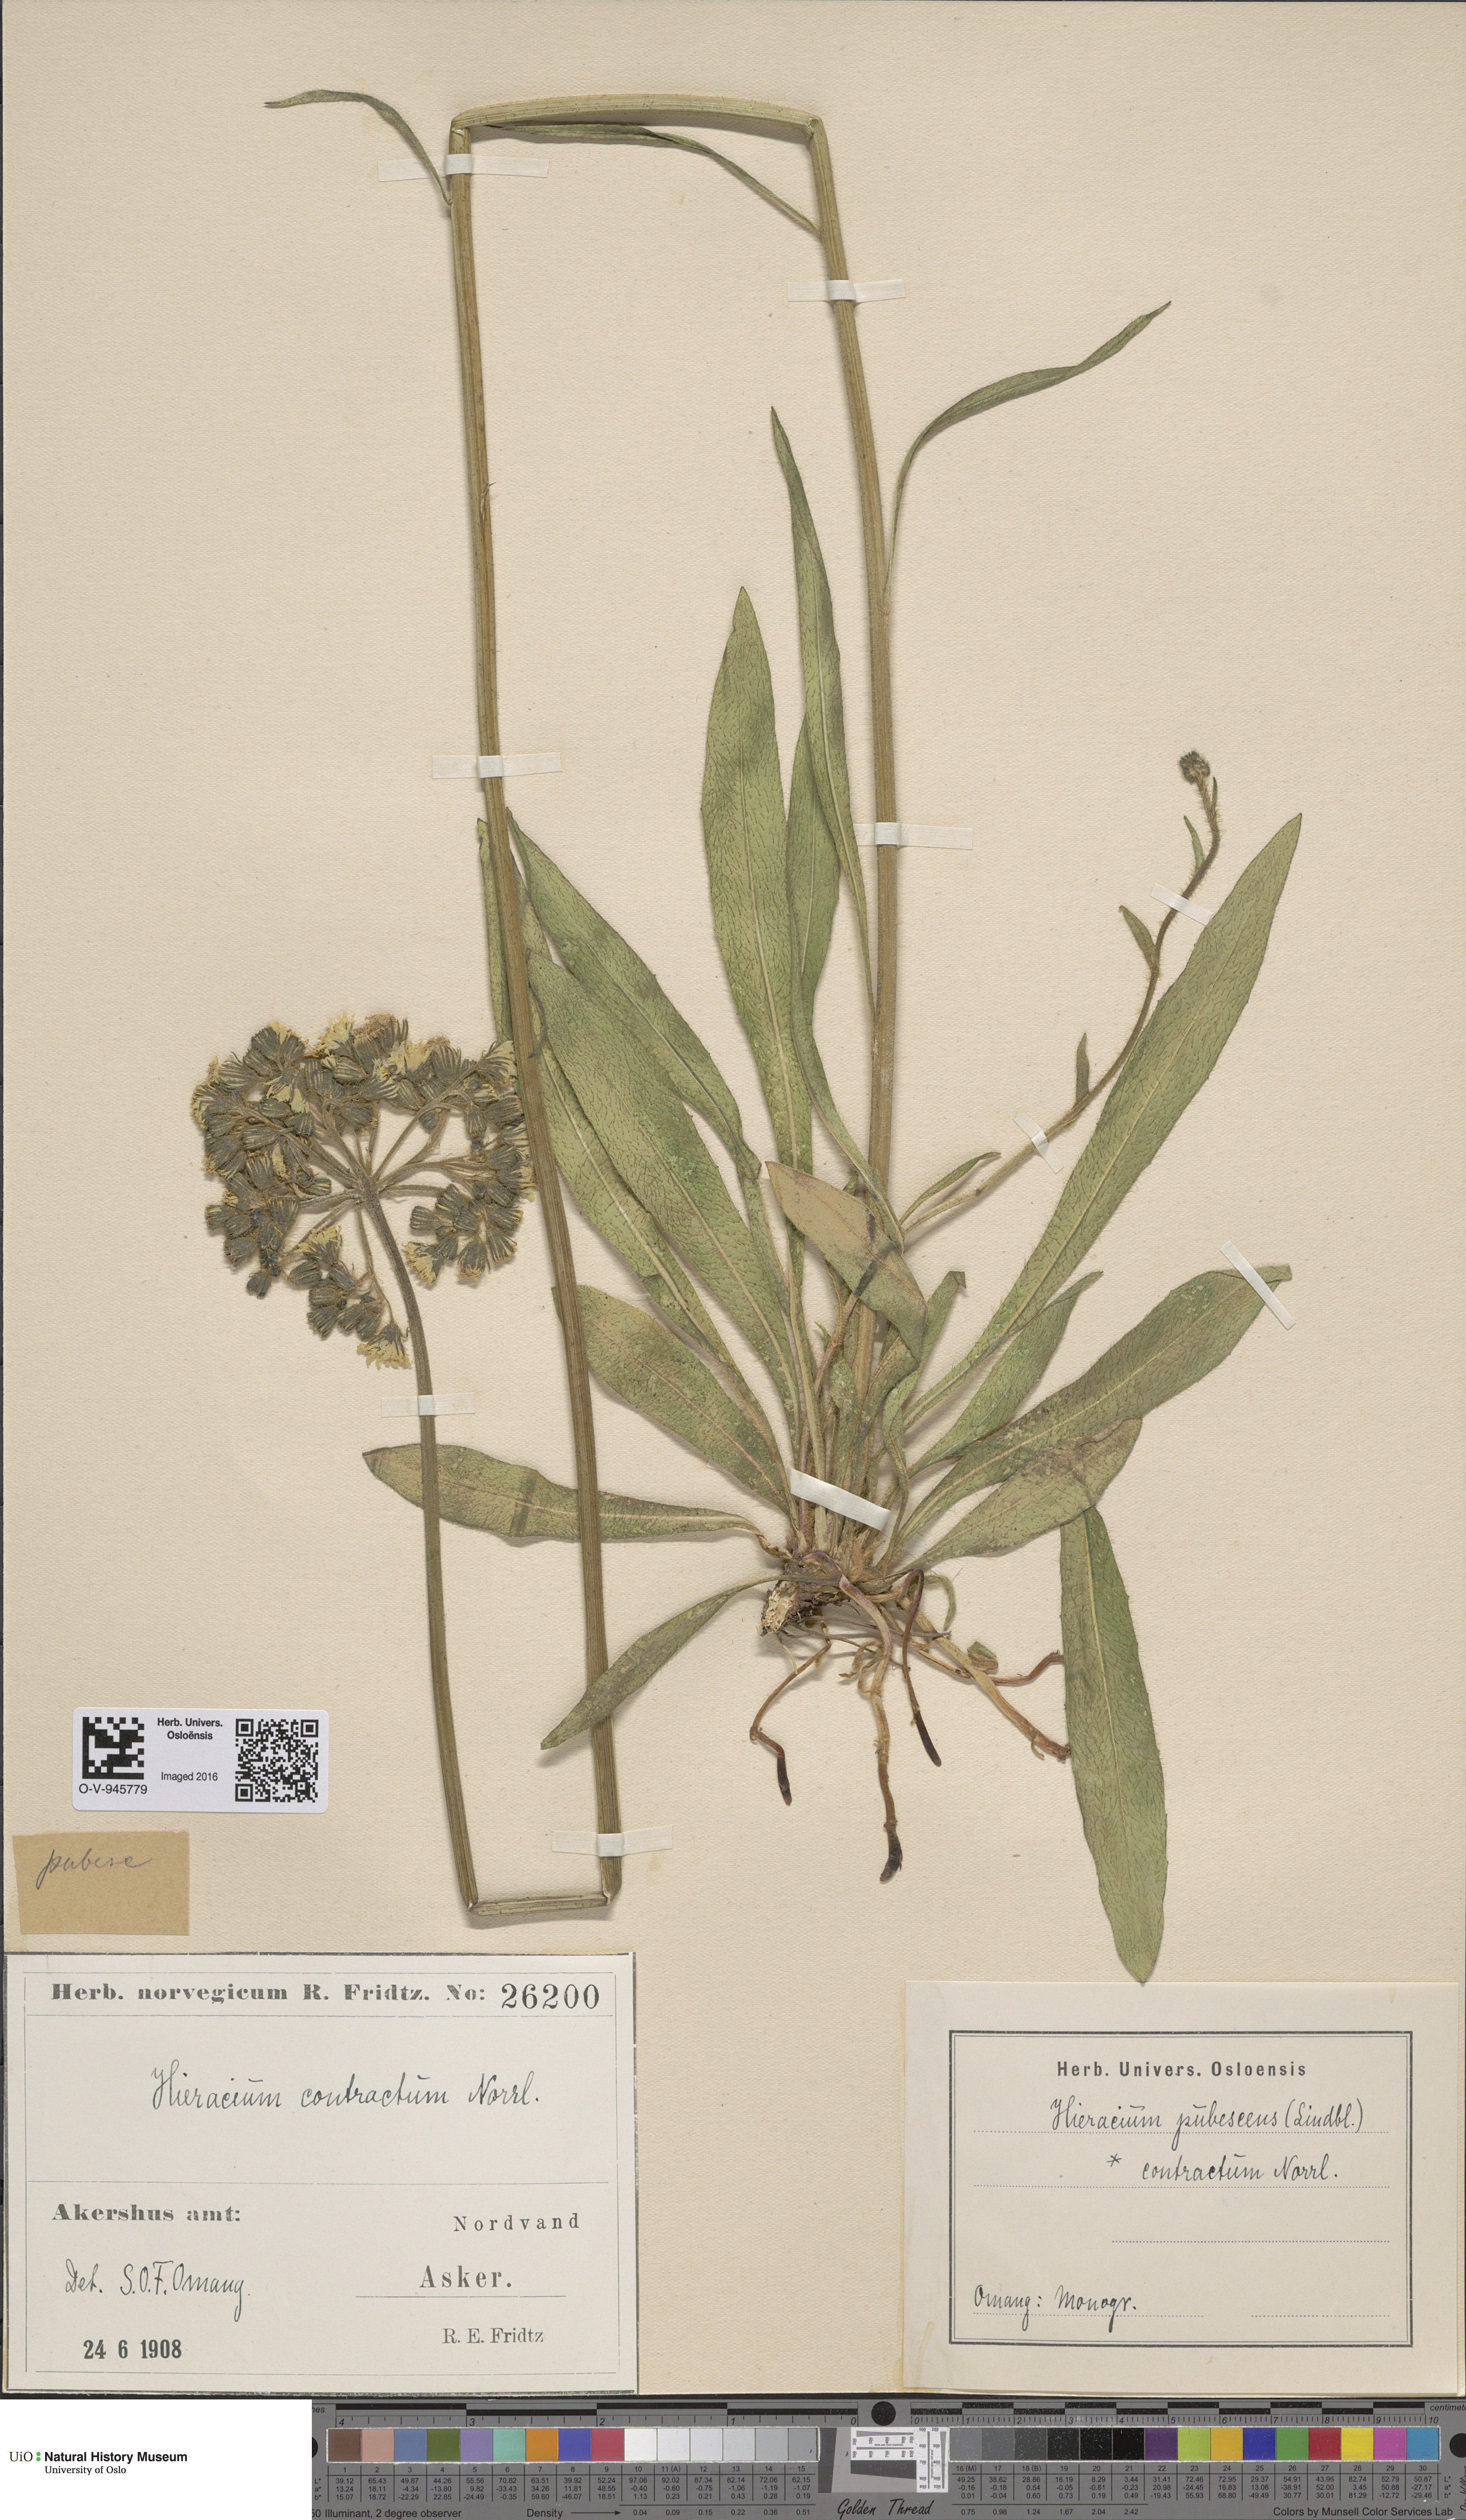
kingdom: Plantae
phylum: Tracheophyta
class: Magnoliopsida
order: Asterales
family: Asteraceae
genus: Pilosella
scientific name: Pilosella cymosa
